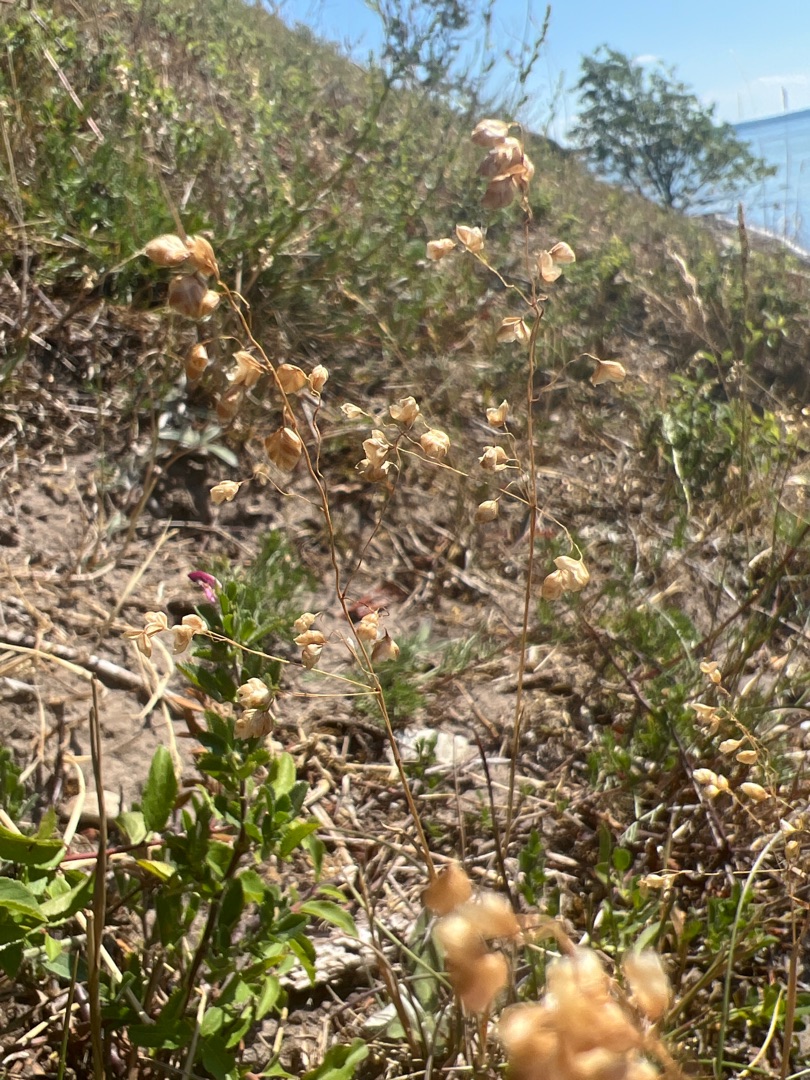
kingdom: Plantae
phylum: Tracheophyta
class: Liliopsida
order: Poales
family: Poaceae
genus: Briza
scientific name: Briza media
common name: Hjertegræs
